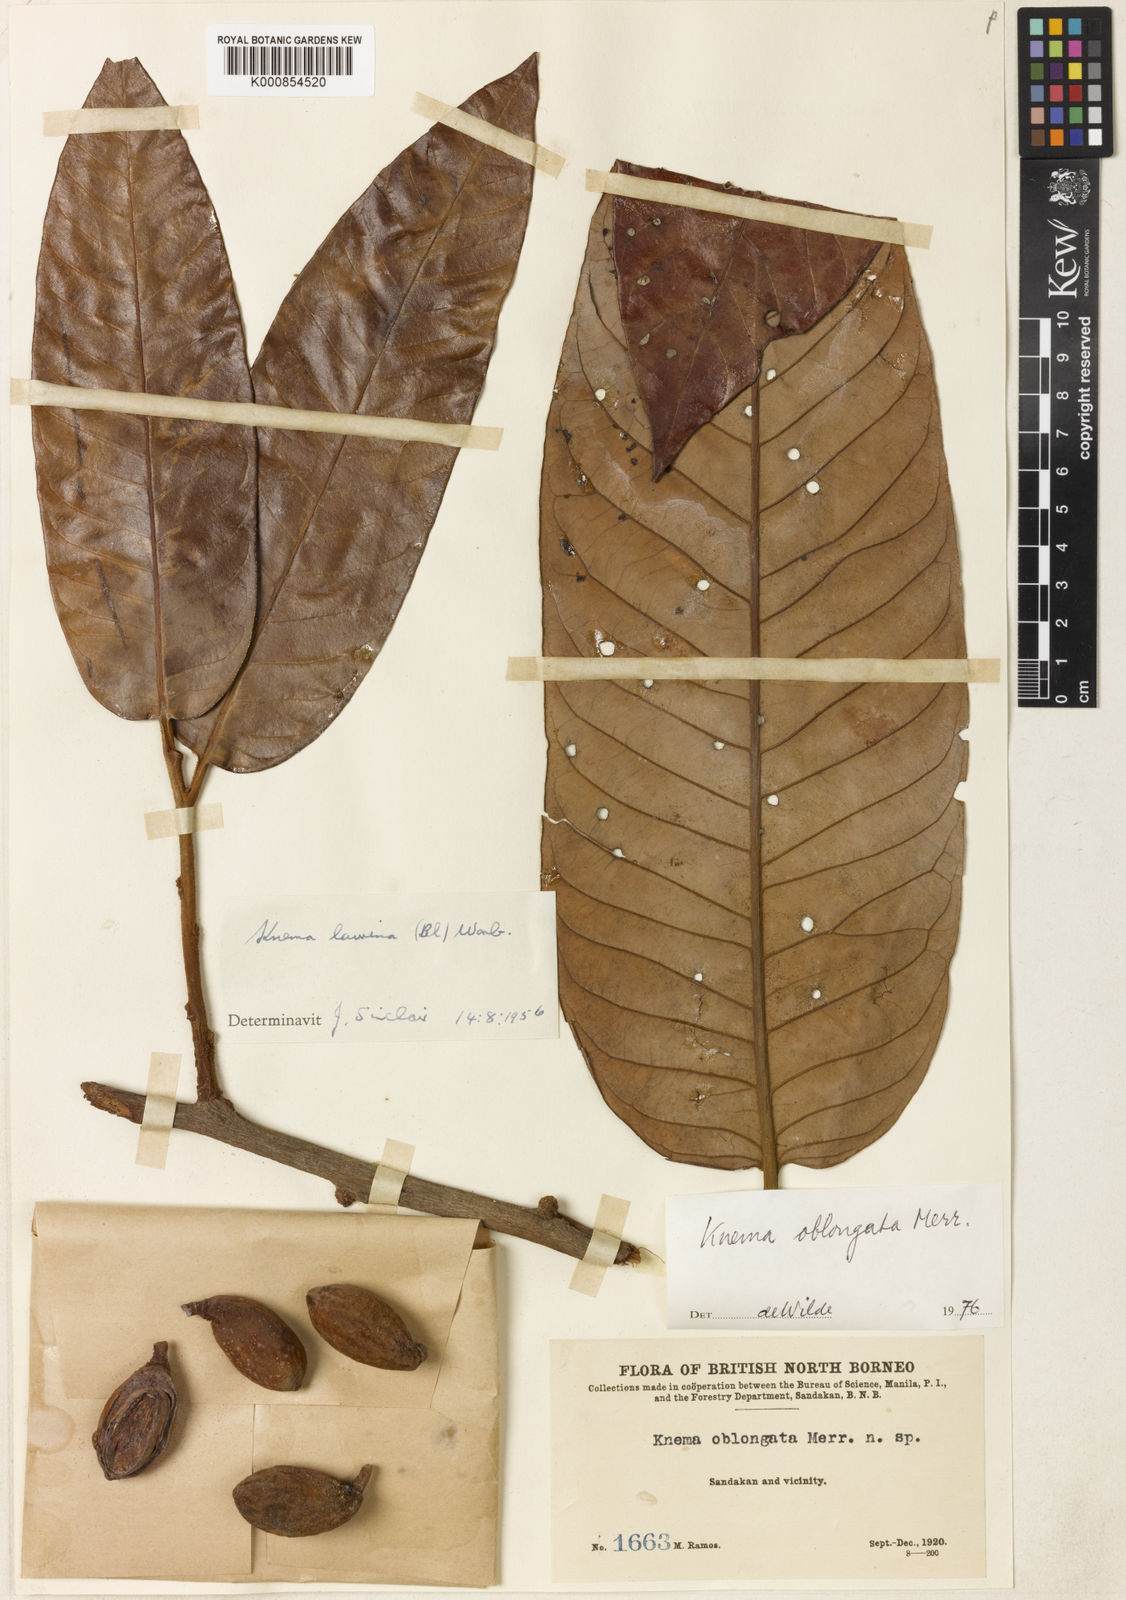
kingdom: Plantae
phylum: Tracheophyta
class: Magnoliopsida
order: Magnoliales
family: Myristicaceae
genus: Knema
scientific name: Knema oblongata
